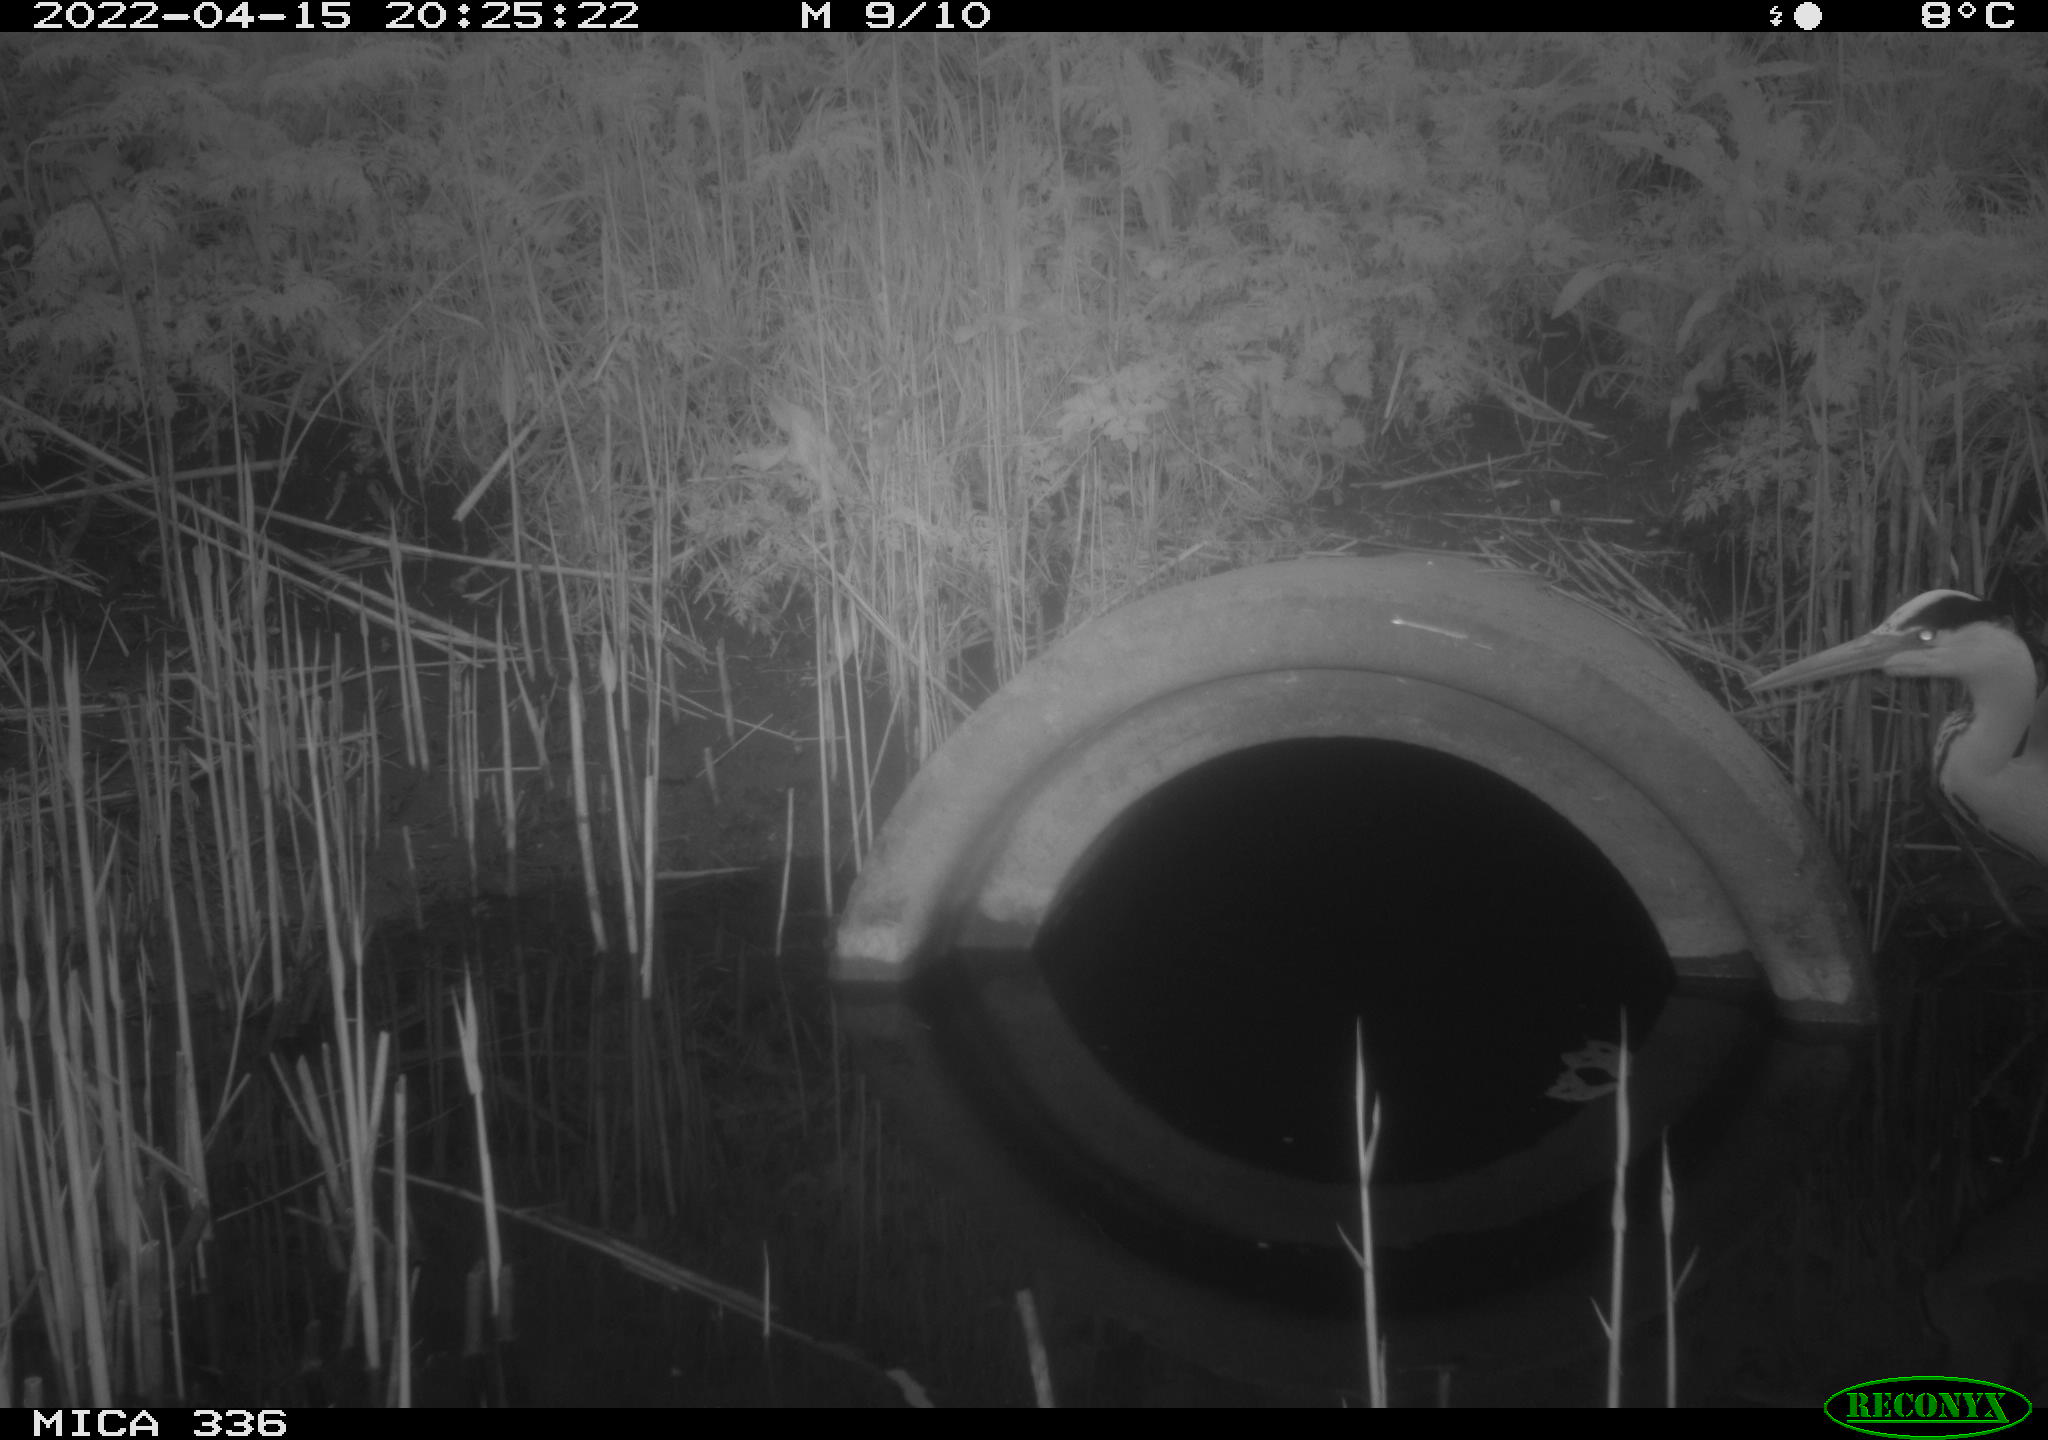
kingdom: Animalia
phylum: Chordata
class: Aves
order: Pelecaniformes
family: Ardeidae
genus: Ardea
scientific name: Ardea cinerea
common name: Grey heron
